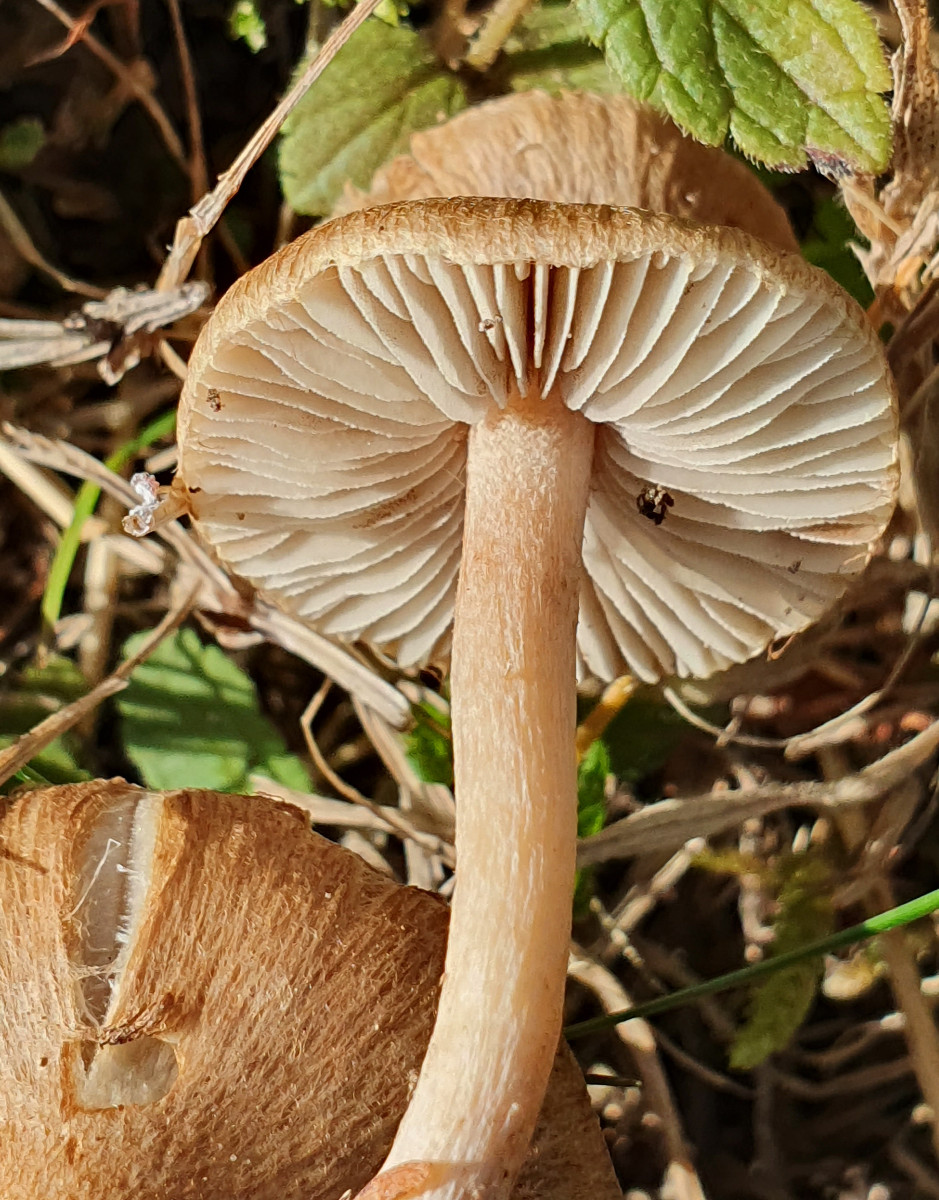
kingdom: Fungi
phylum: Basidiomycota
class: Agaricomycetes
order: Agaricales
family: Inocybaceae
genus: Inocybe
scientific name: Inocybe semifulva
